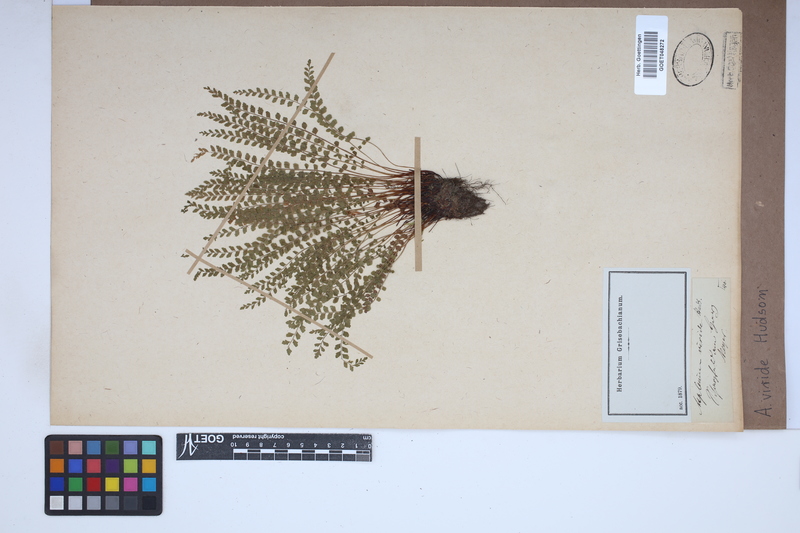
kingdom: Plantae
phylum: Tracheophyta
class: Polypodiopsida
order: Polypodiales
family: Aspleniaceae
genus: Asplenium
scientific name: Asplenium viride
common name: Green spleenwort
